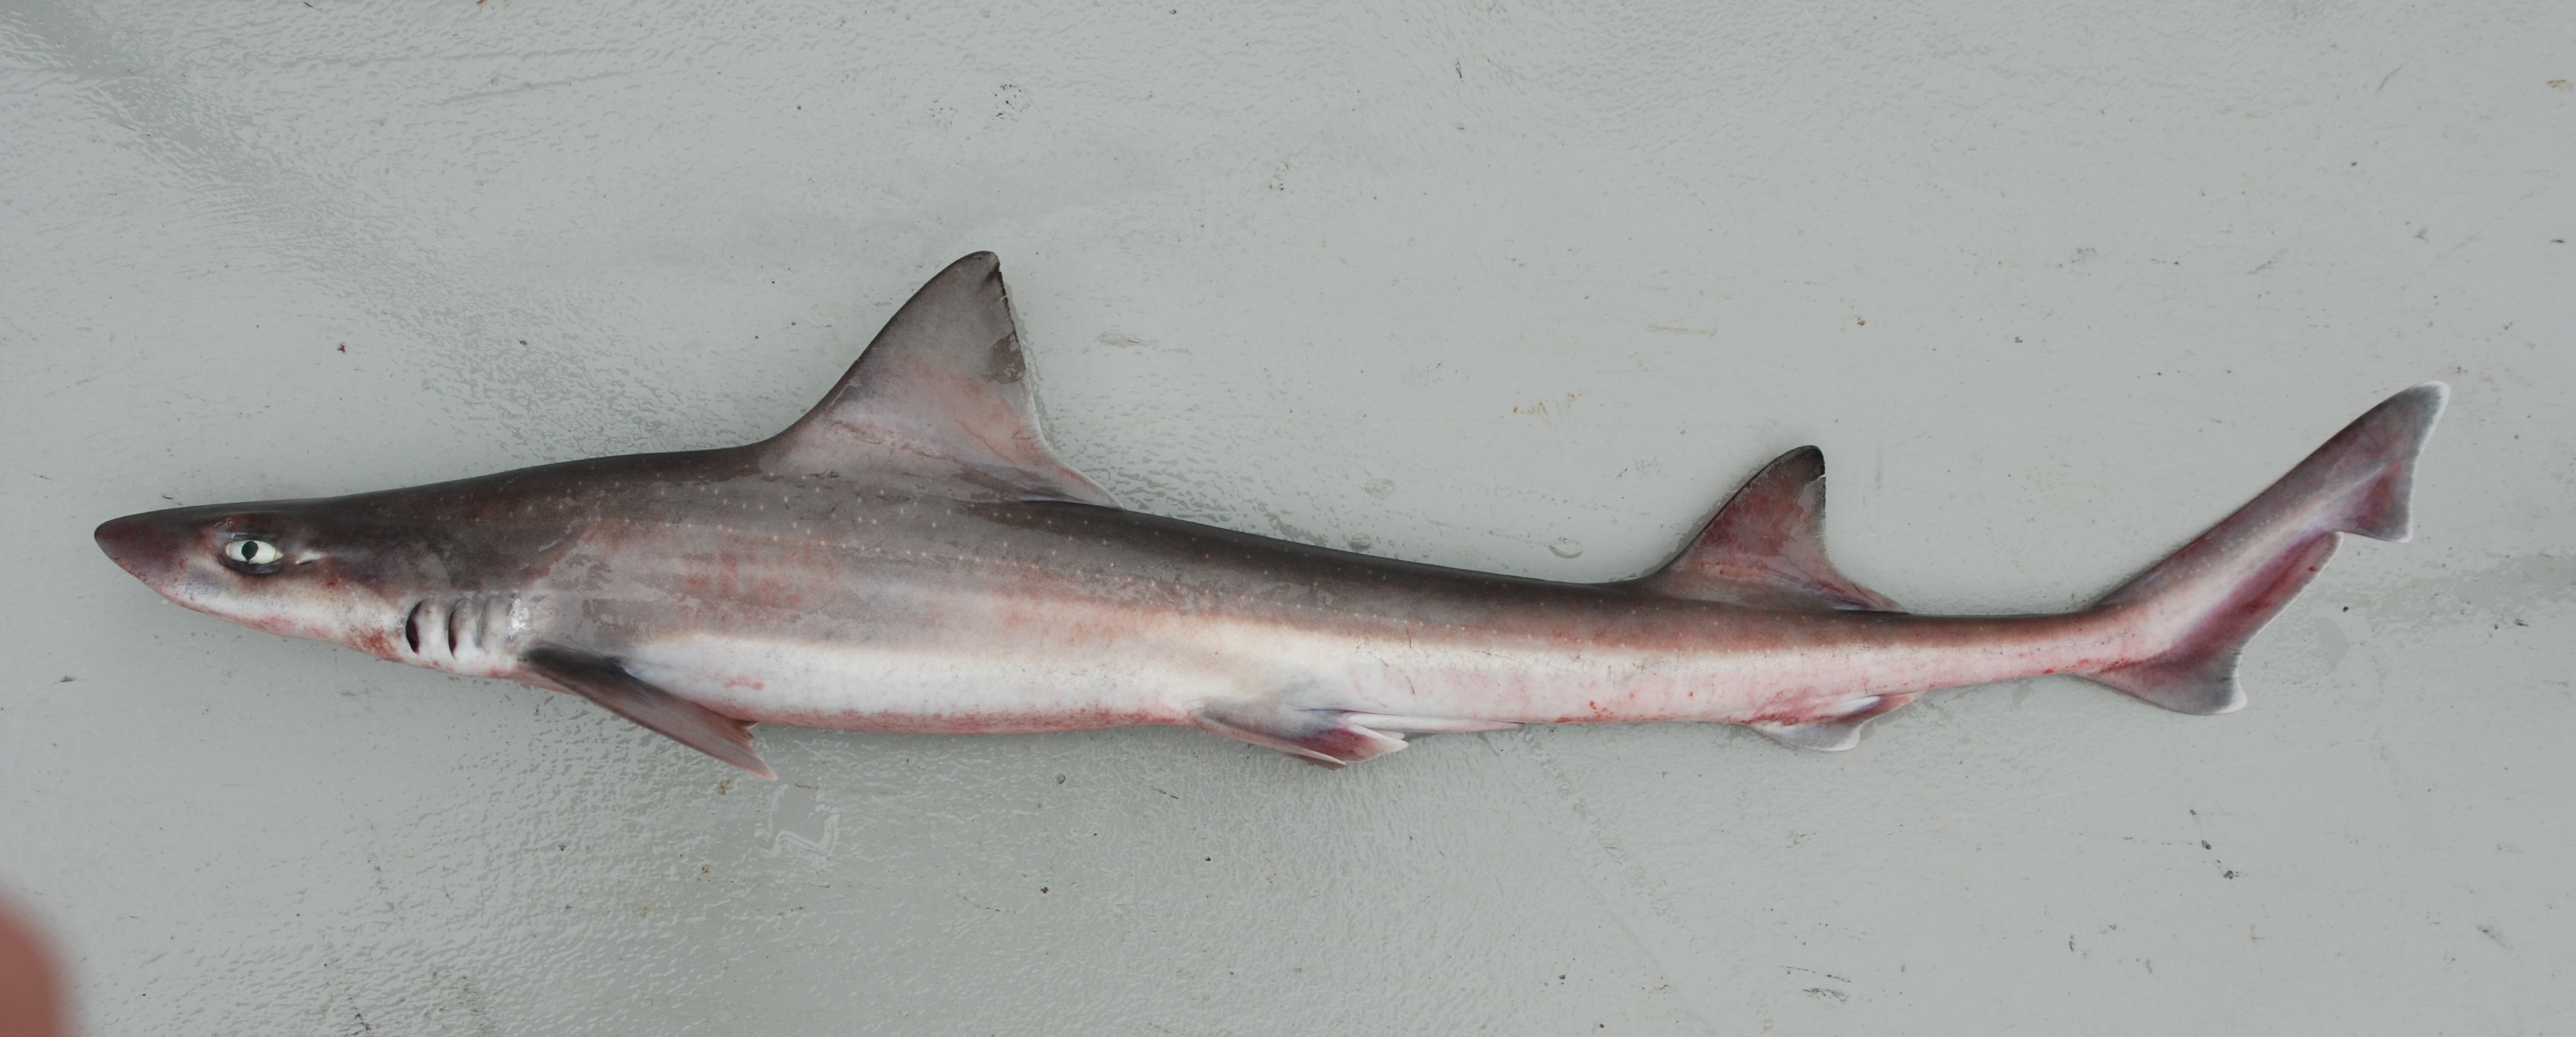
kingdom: Animalia
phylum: Chordata
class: Elasmobranchii
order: Carcharhiniformes
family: Triakidae
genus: Mustelus
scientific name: Mustelus palumbes
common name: Whitespotted smooth-hound
